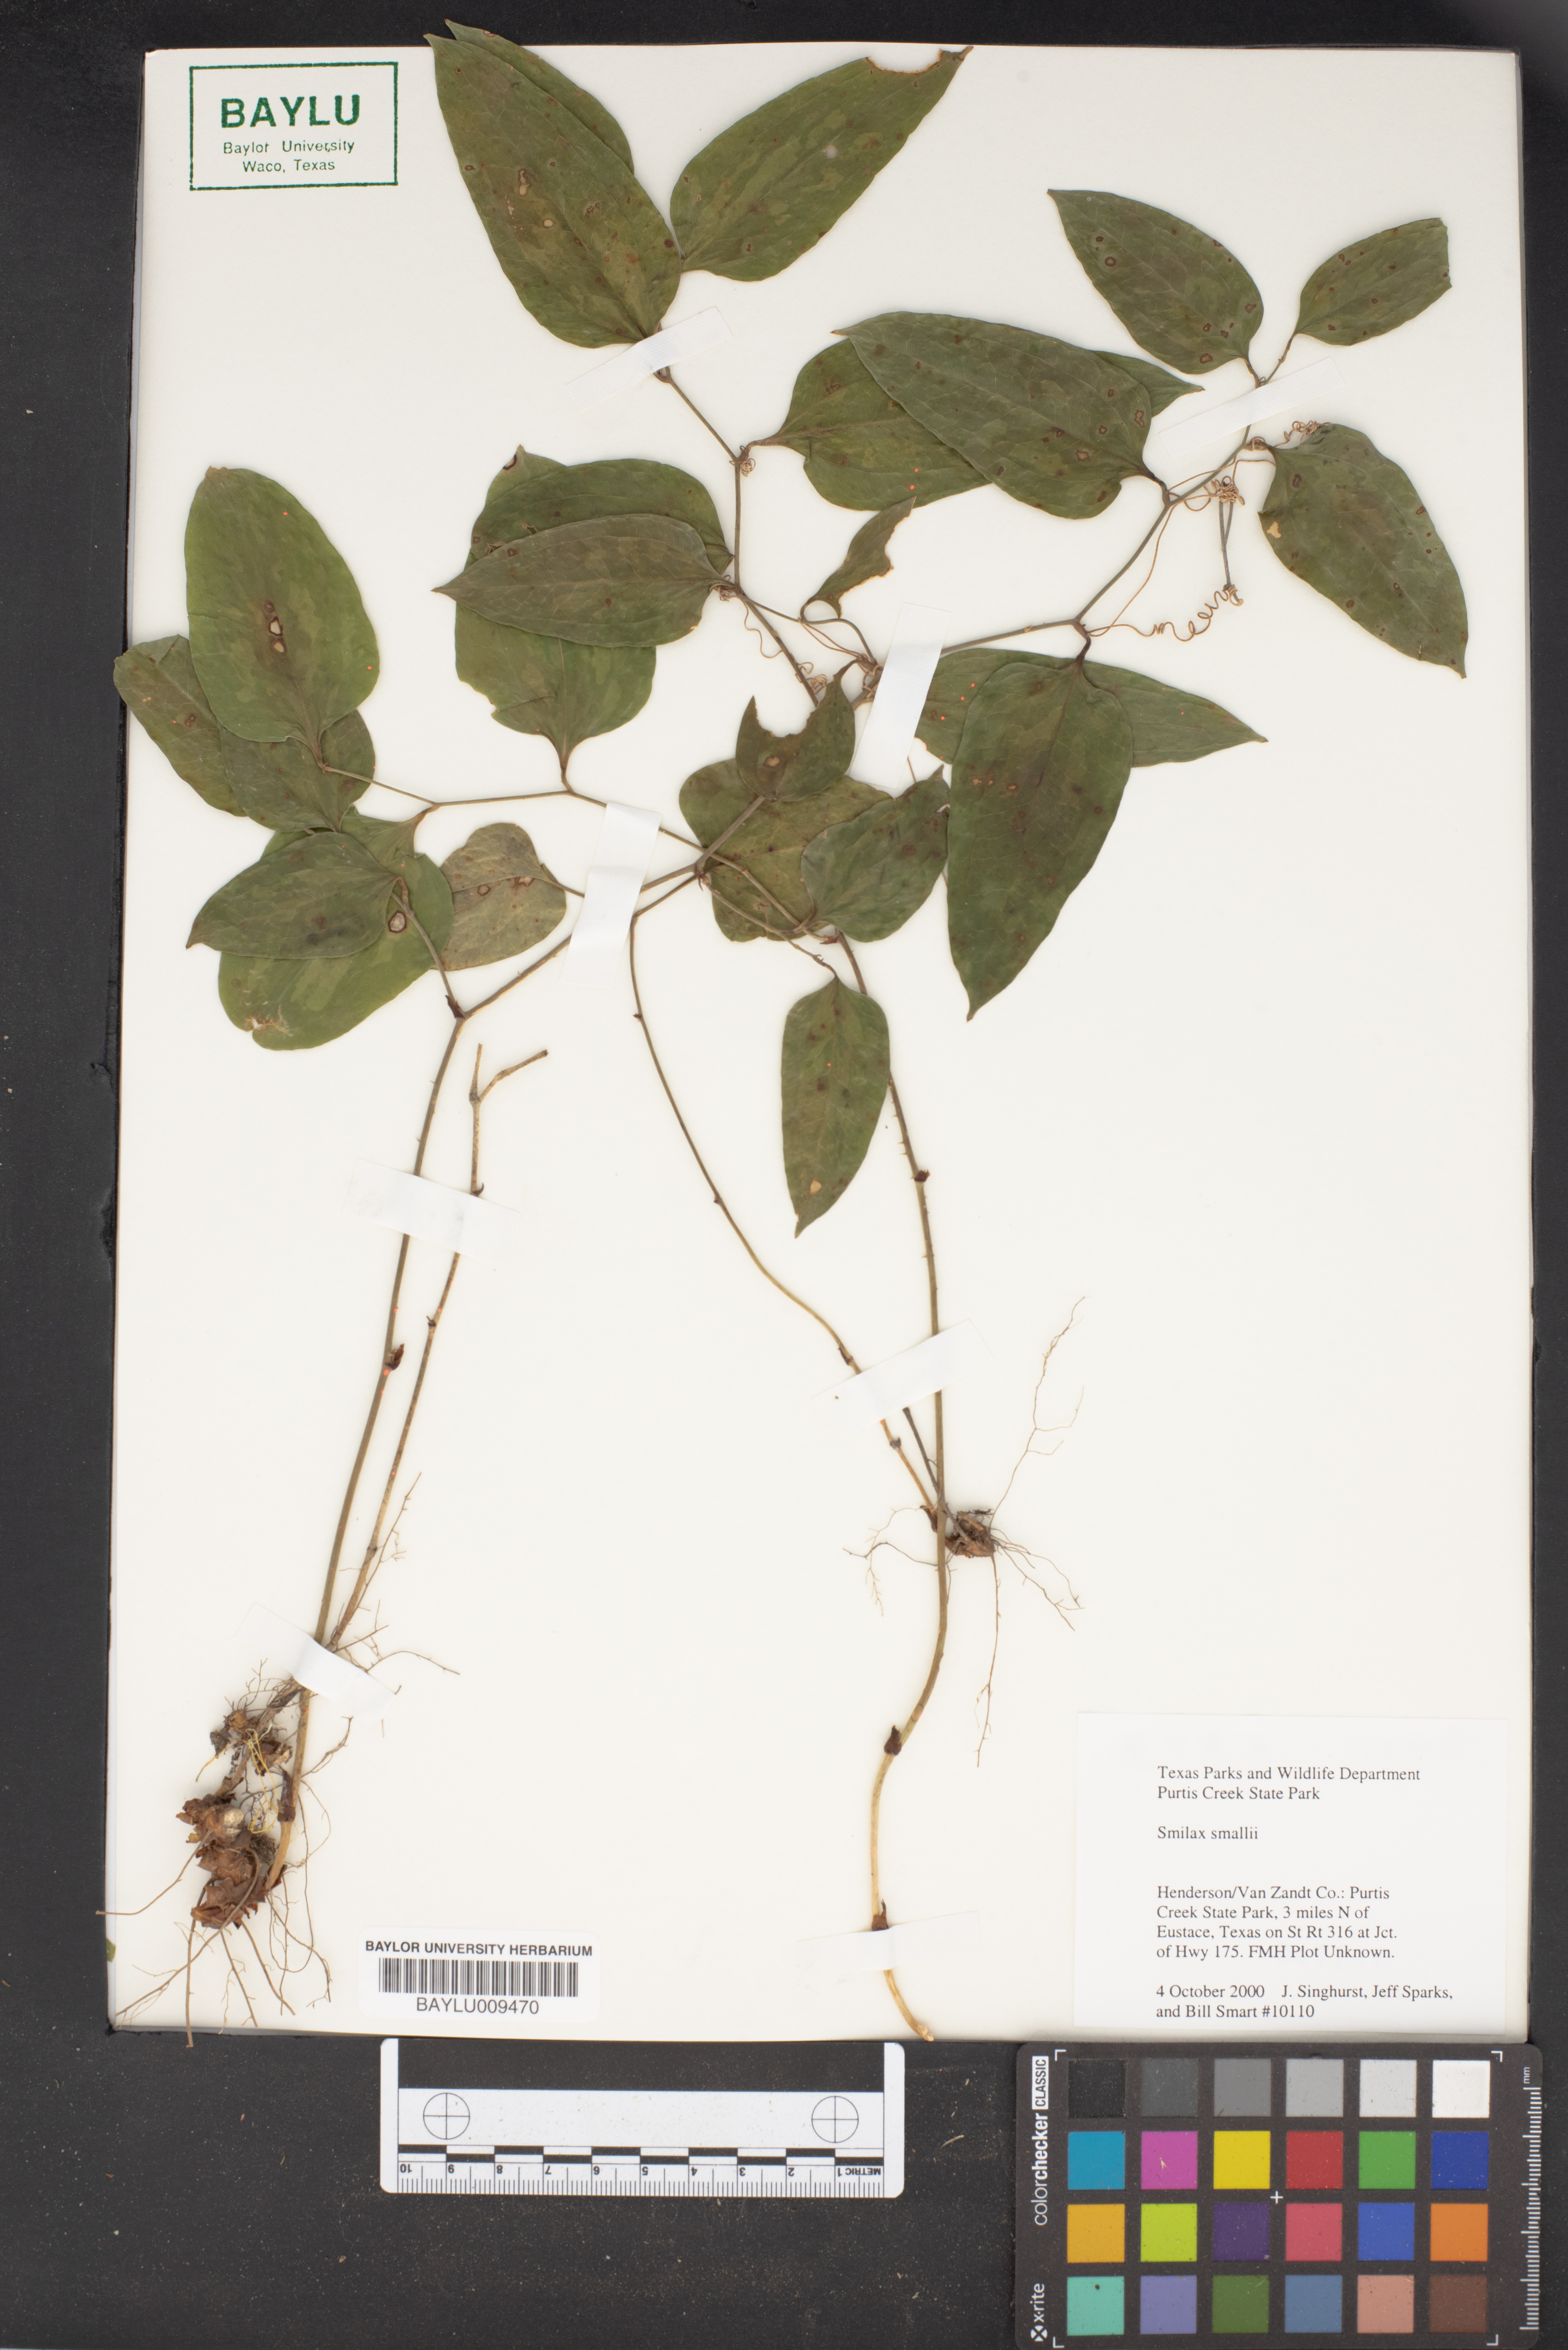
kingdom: Plantae
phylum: Tracheophyta
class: Liliopsida
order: Liliales
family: Smilacaceae
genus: Smilax
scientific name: Smilax maritima
